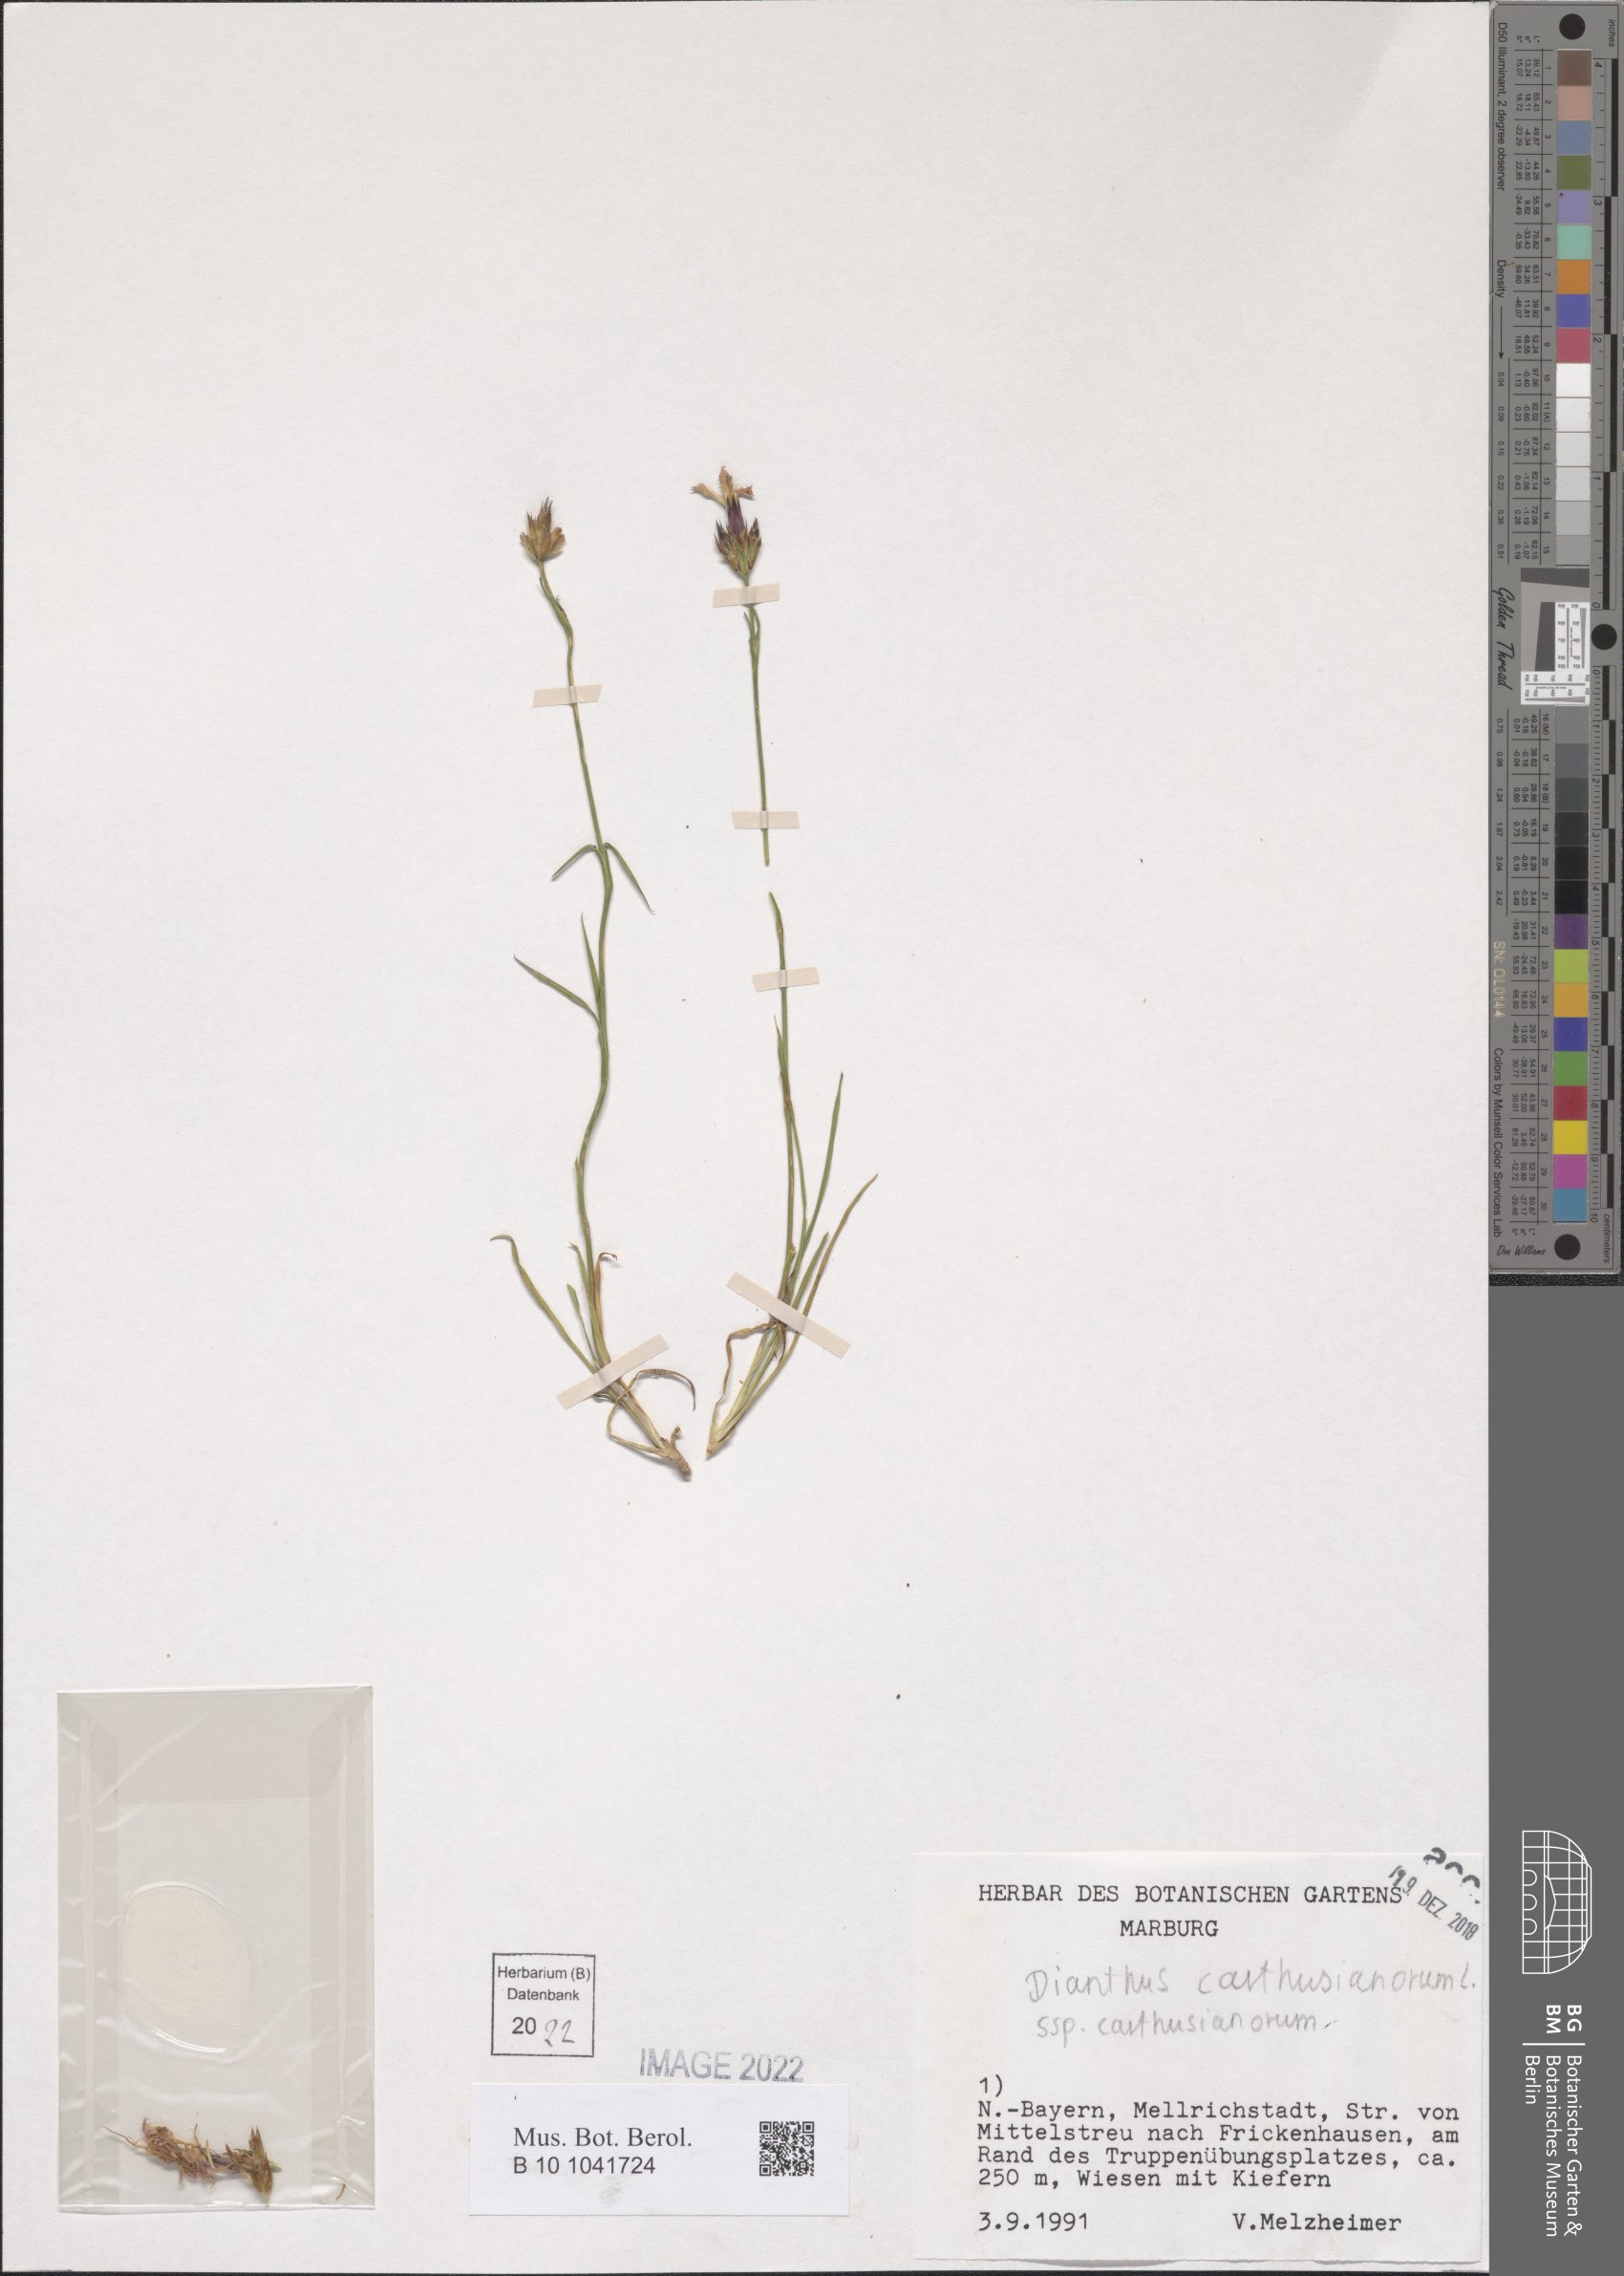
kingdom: Plantae
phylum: Tracheophyta
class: Magnoliopsida
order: Caryophyllales
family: Caryophyllaceae
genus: Dianthus
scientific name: Dianthus carthusianorum
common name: Carthusian pink
